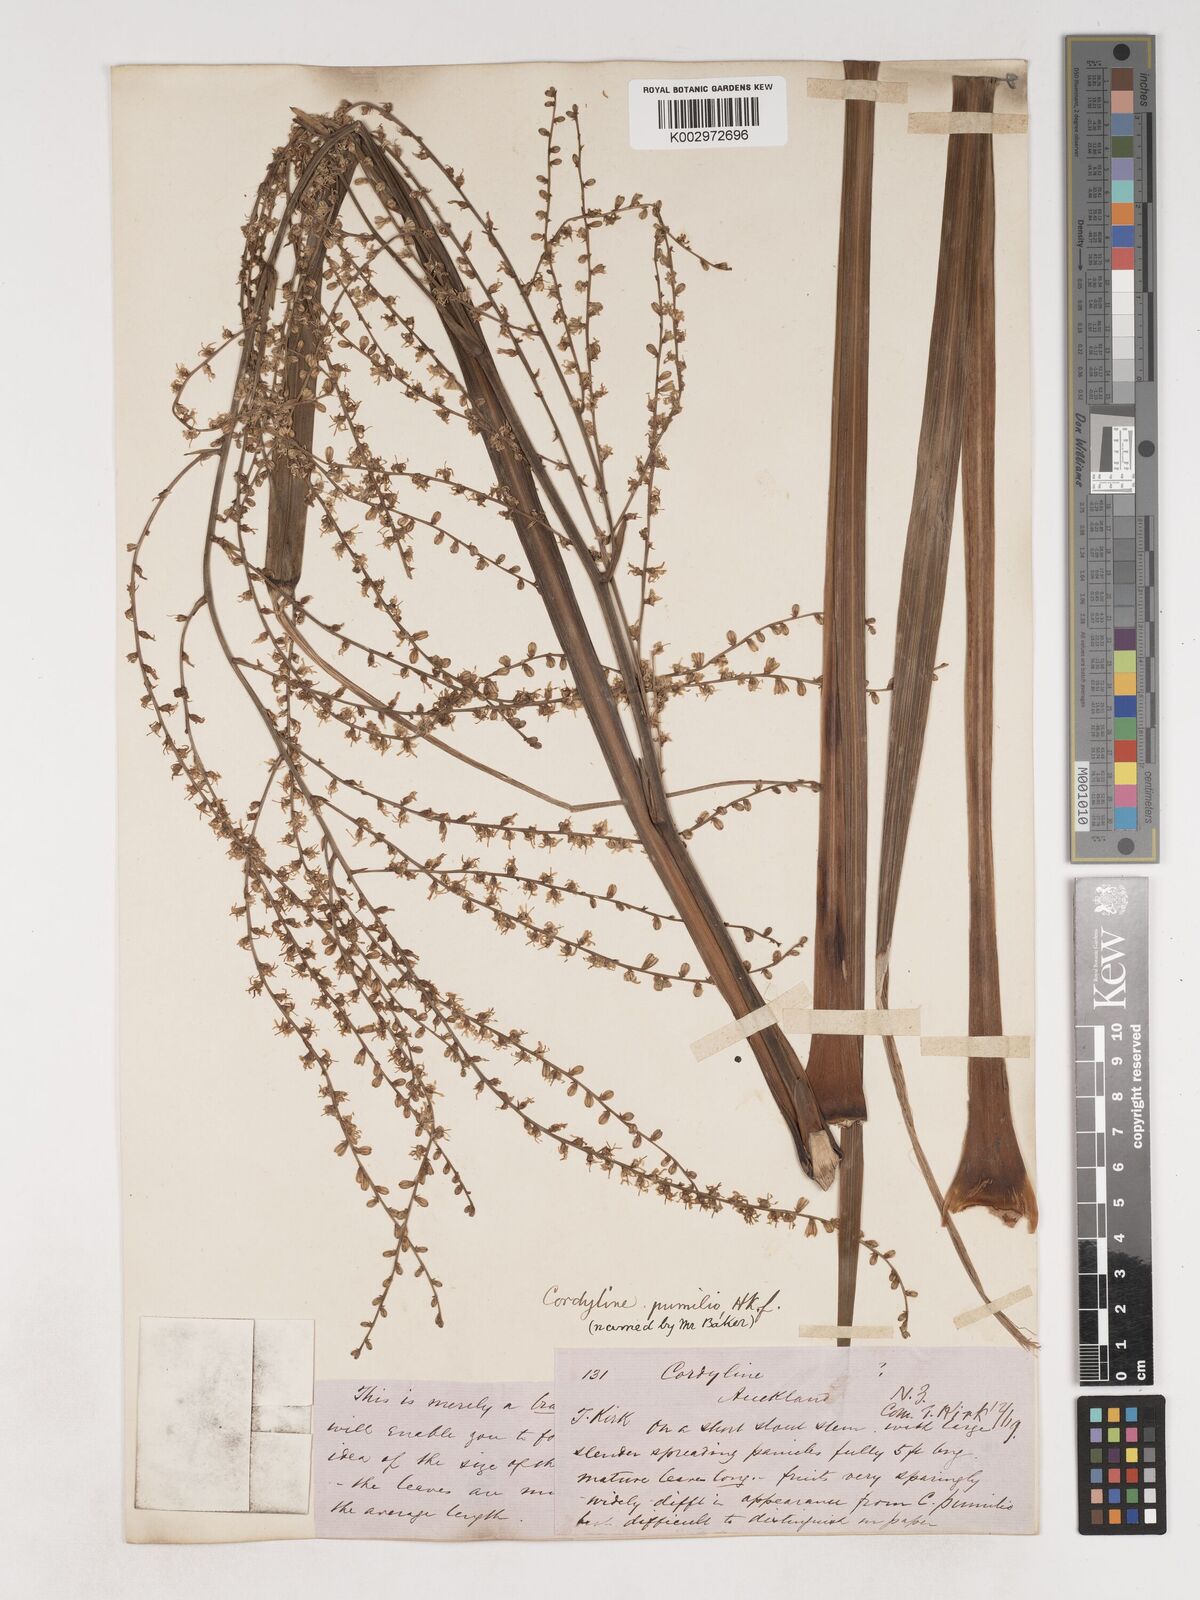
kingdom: Plantae
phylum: Tracheophyta
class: Liliopsida
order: Asparagales
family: Asparagaceae
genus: Cordyline
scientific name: Cordyline pumilio
